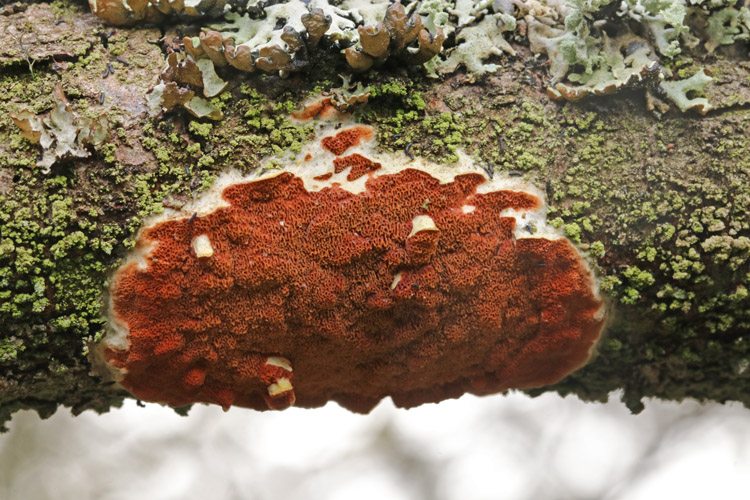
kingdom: Fungi
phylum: Basidiomycota
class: Agaricomycetes
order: Polyporales
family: Irpicaceae
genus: Meruliopsis
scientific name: Meruliopsis taxicola
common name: purpurbrun foldporesvamp
